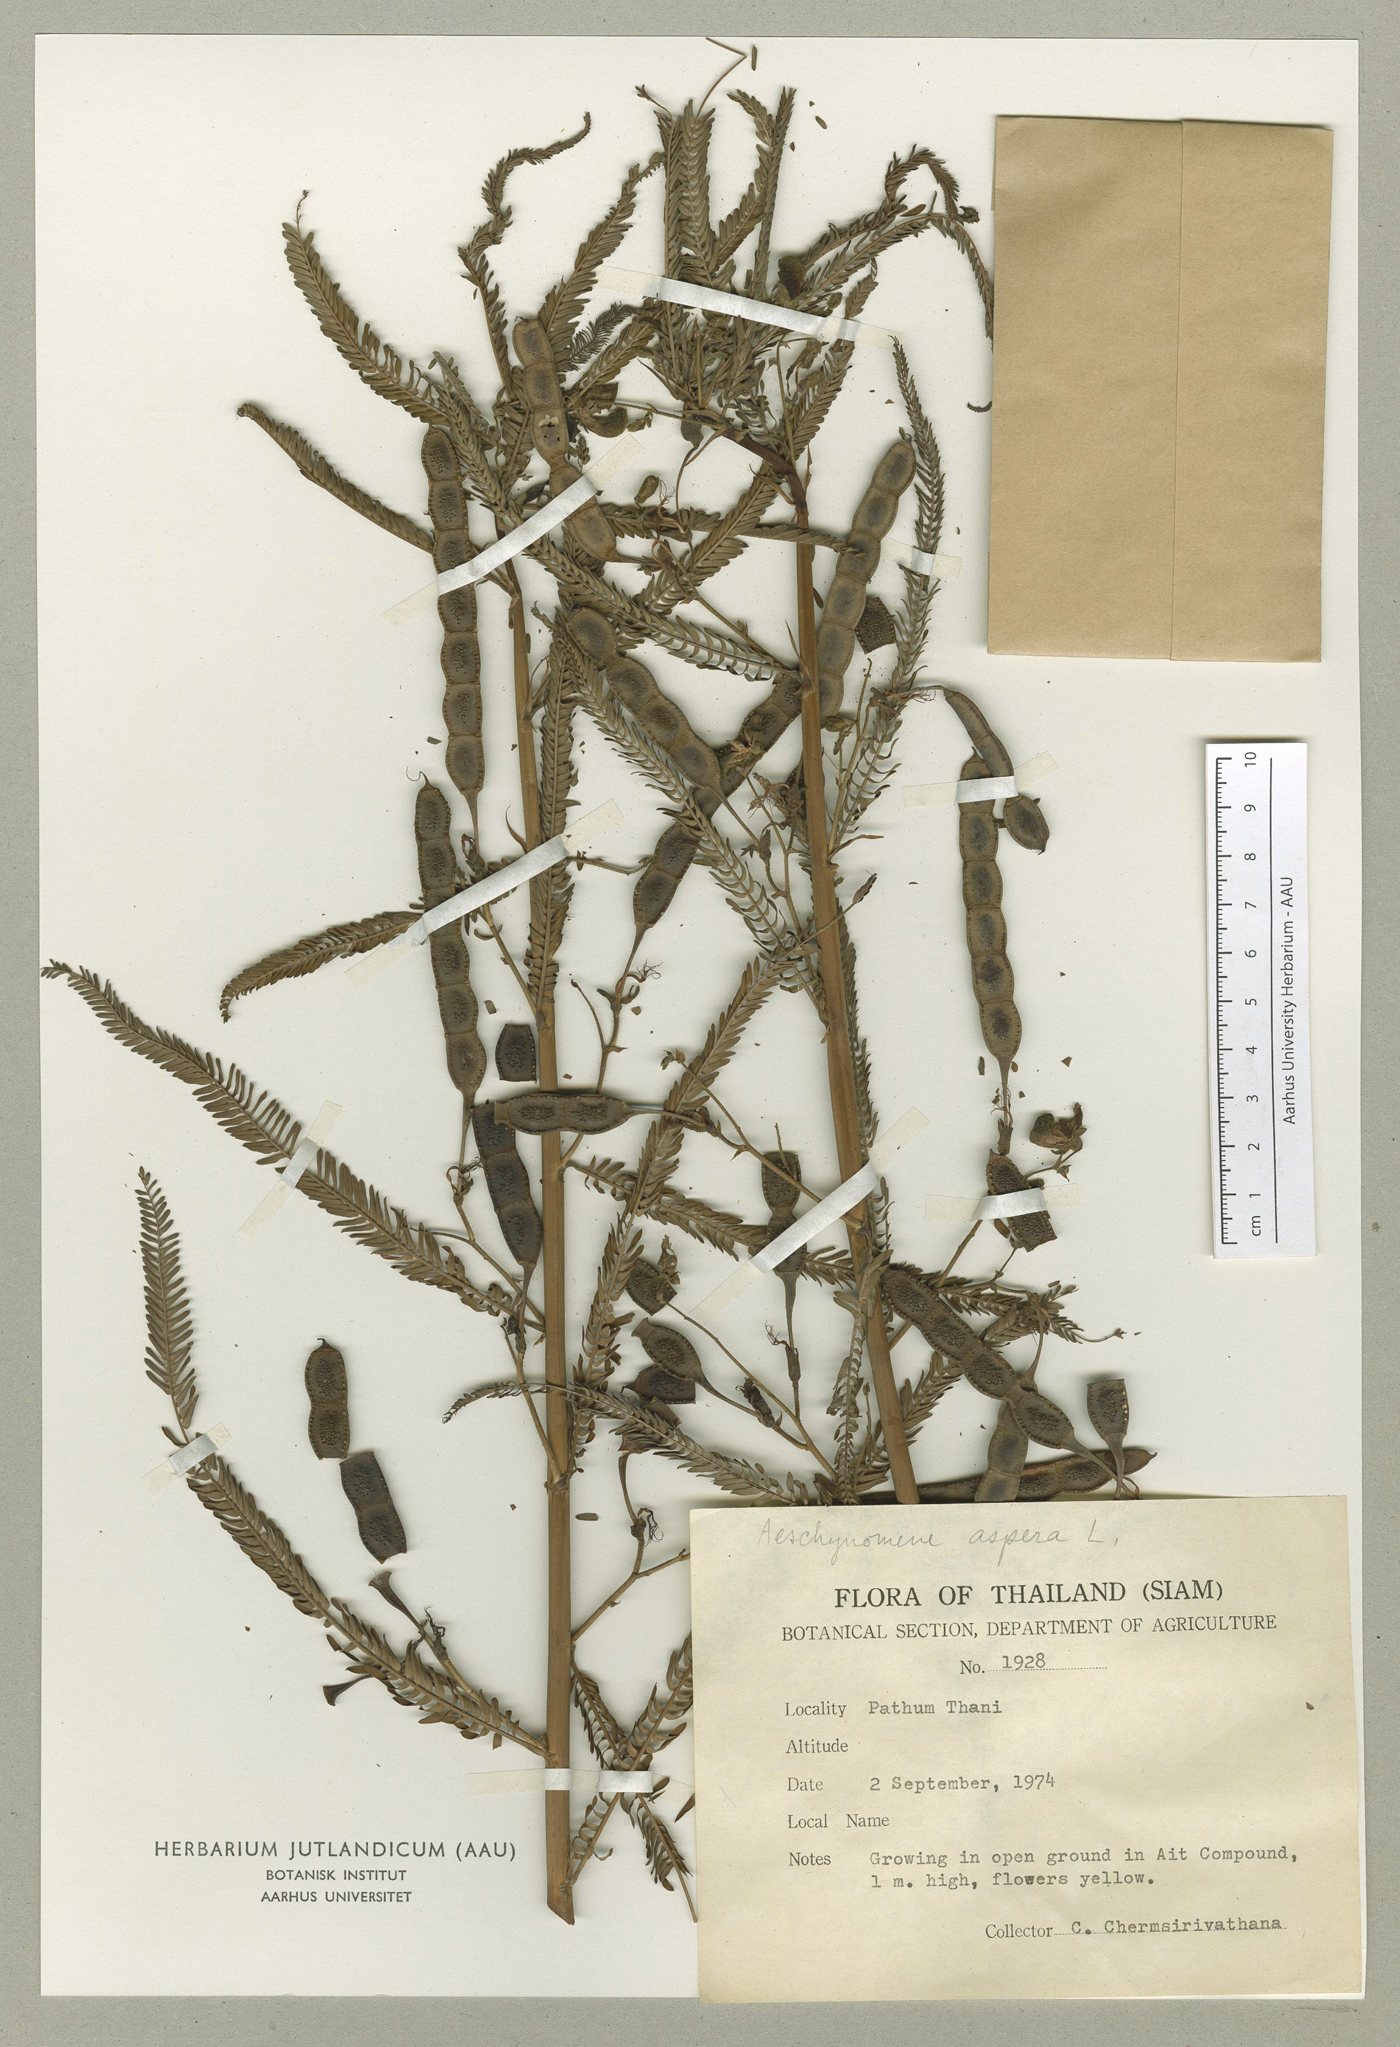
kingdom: Plantae
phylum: Tracheophyta
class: Magnoliopsida
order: Fabales
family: Fabaceae
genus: Aeschynomene
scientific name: Aeschynomene aspera
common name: Pith plant
